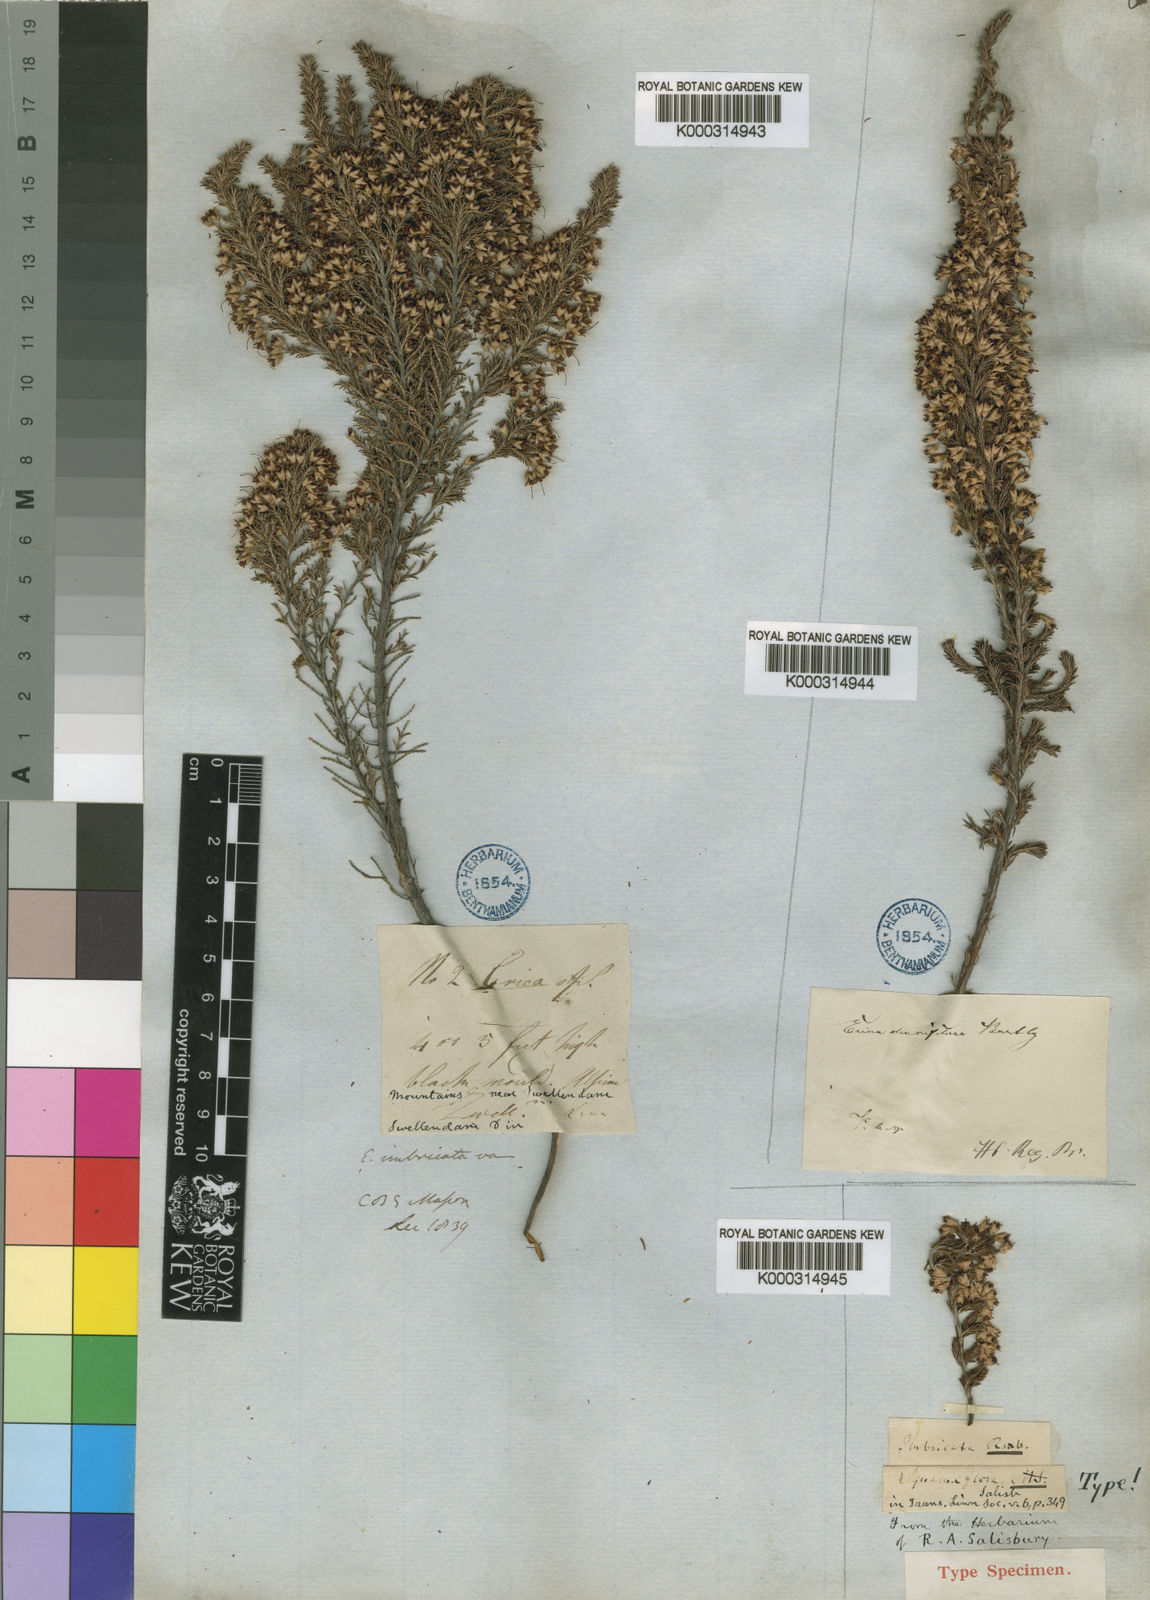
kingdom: Plantae
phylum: Tracheophyta
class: Magnoliopsida
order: Ericales
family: Ericaceae
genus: Erica
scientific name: Erica imbricata
